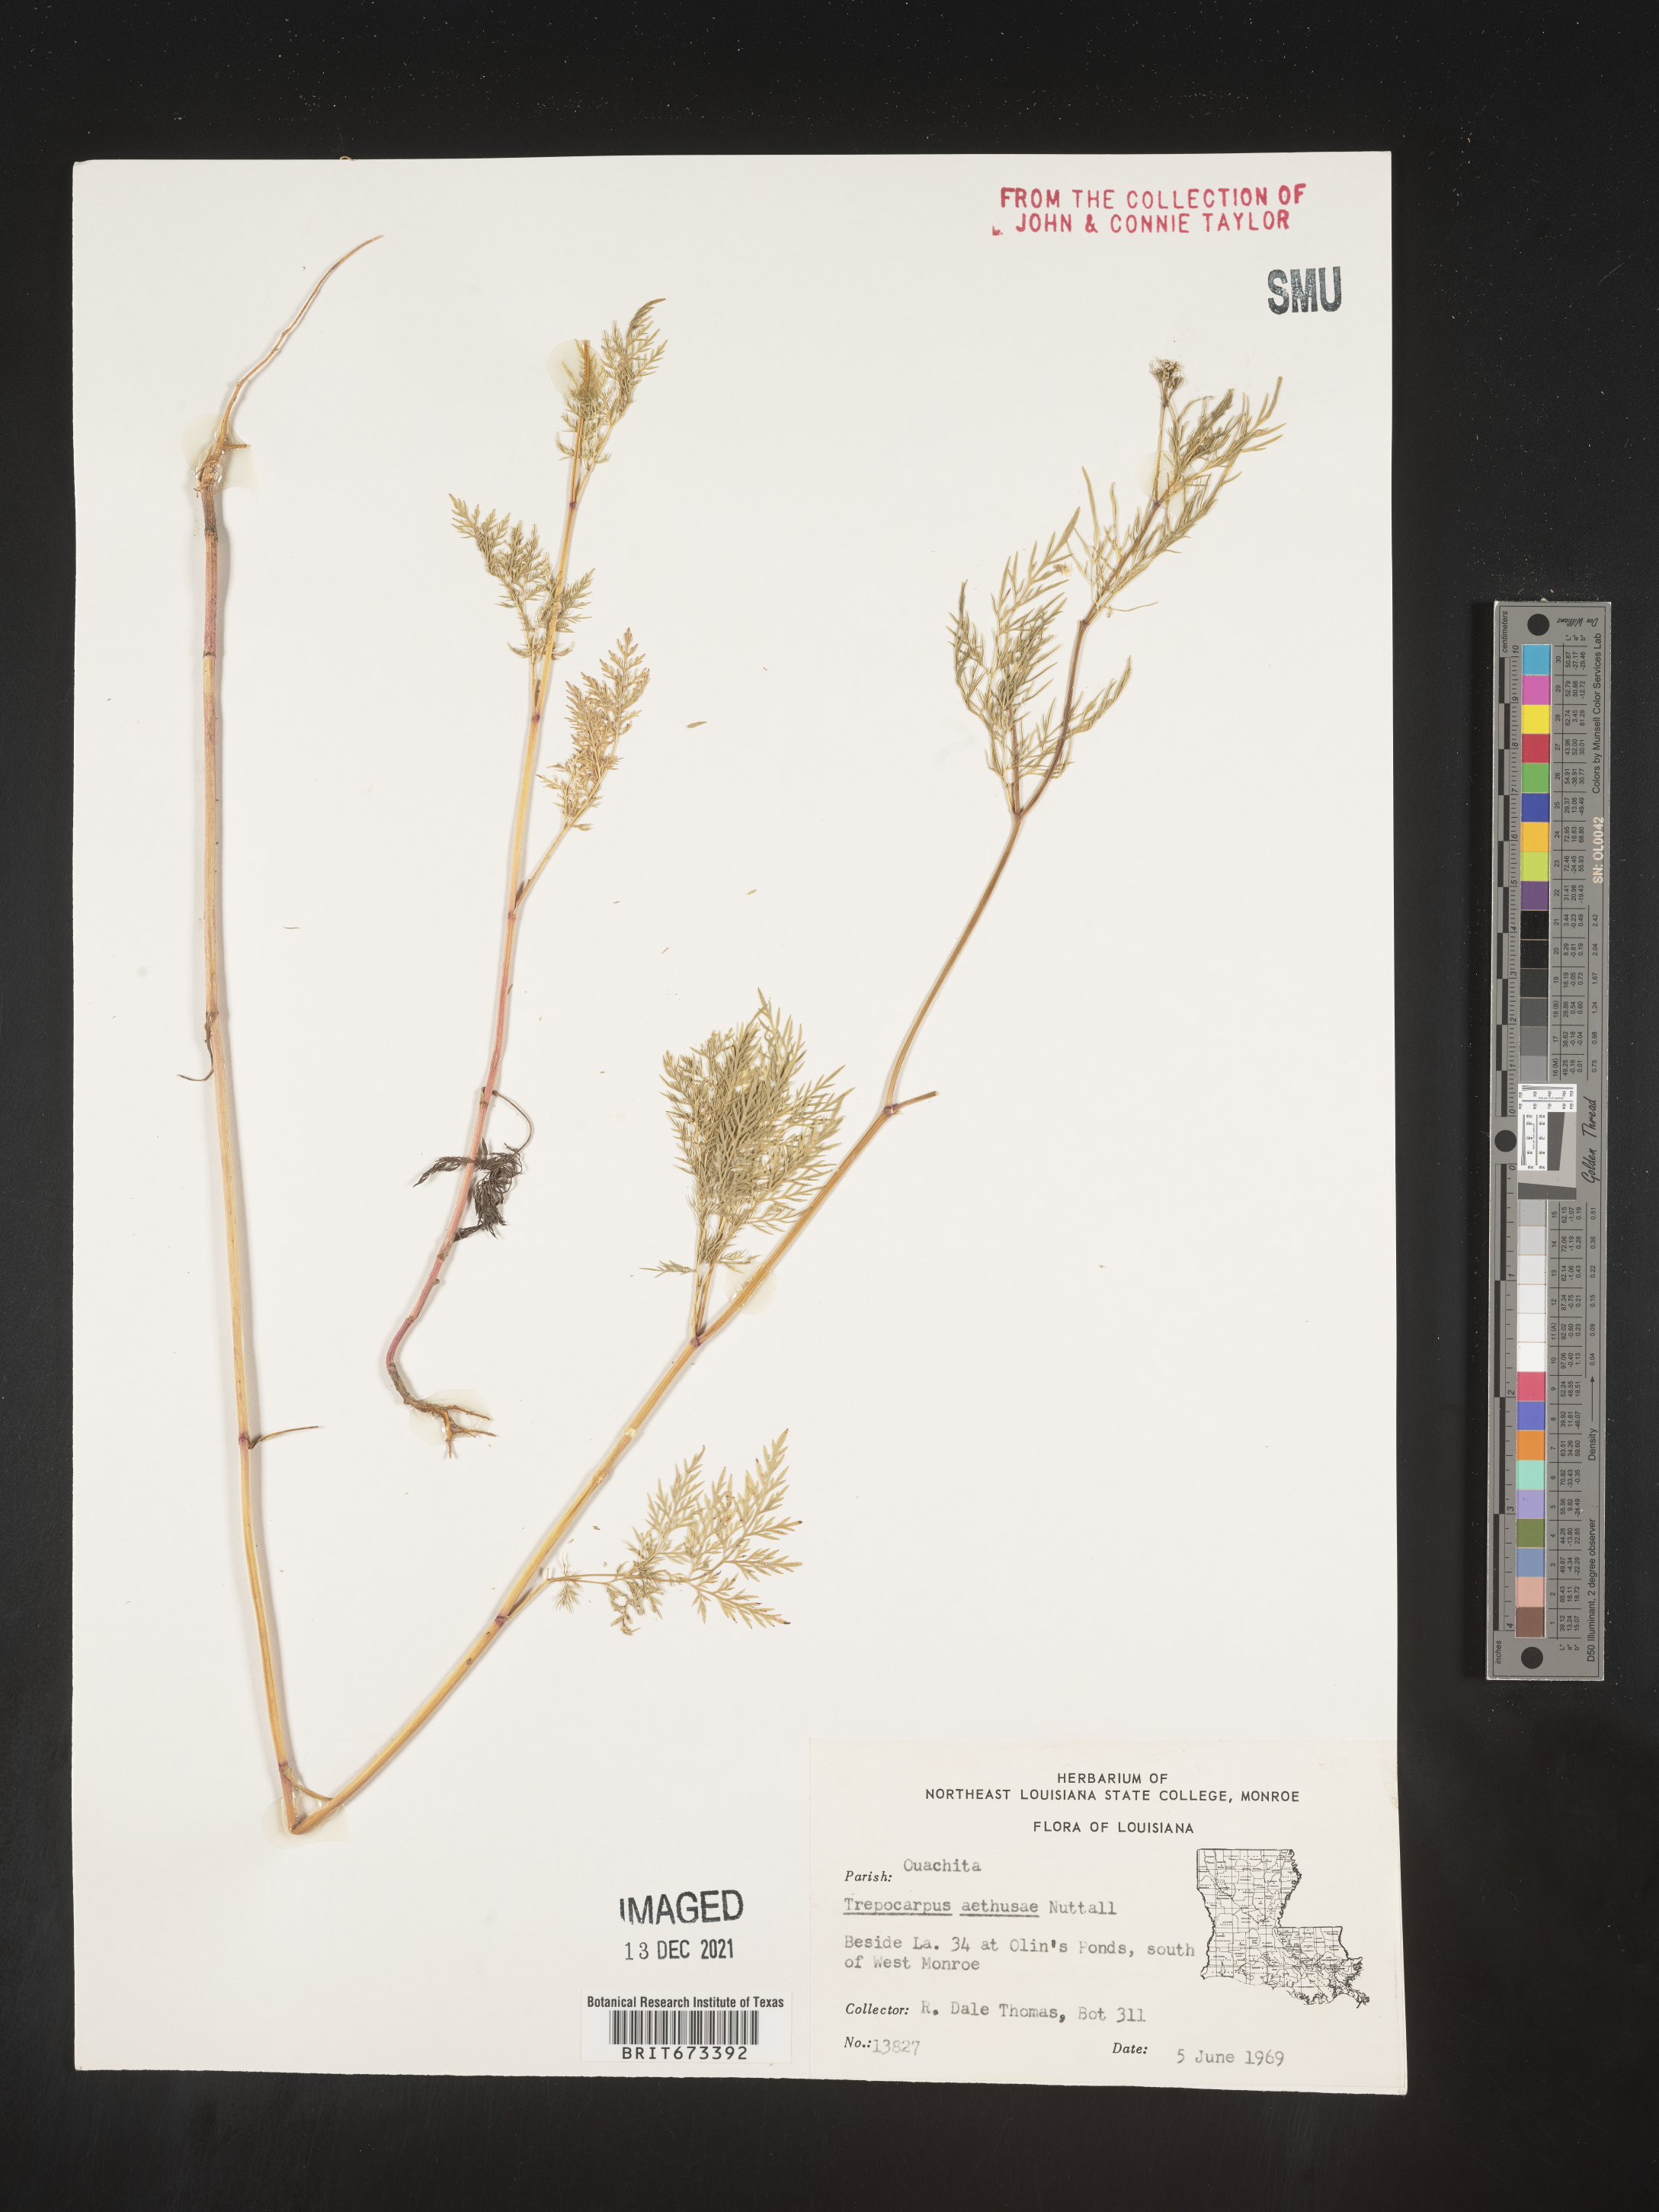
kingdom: Plantae
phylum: Tracheophyta
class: Magnoliopsida
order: Apiales
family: Apiaceae
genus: Trepocarpus
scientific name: Trepocarpus aethusae
